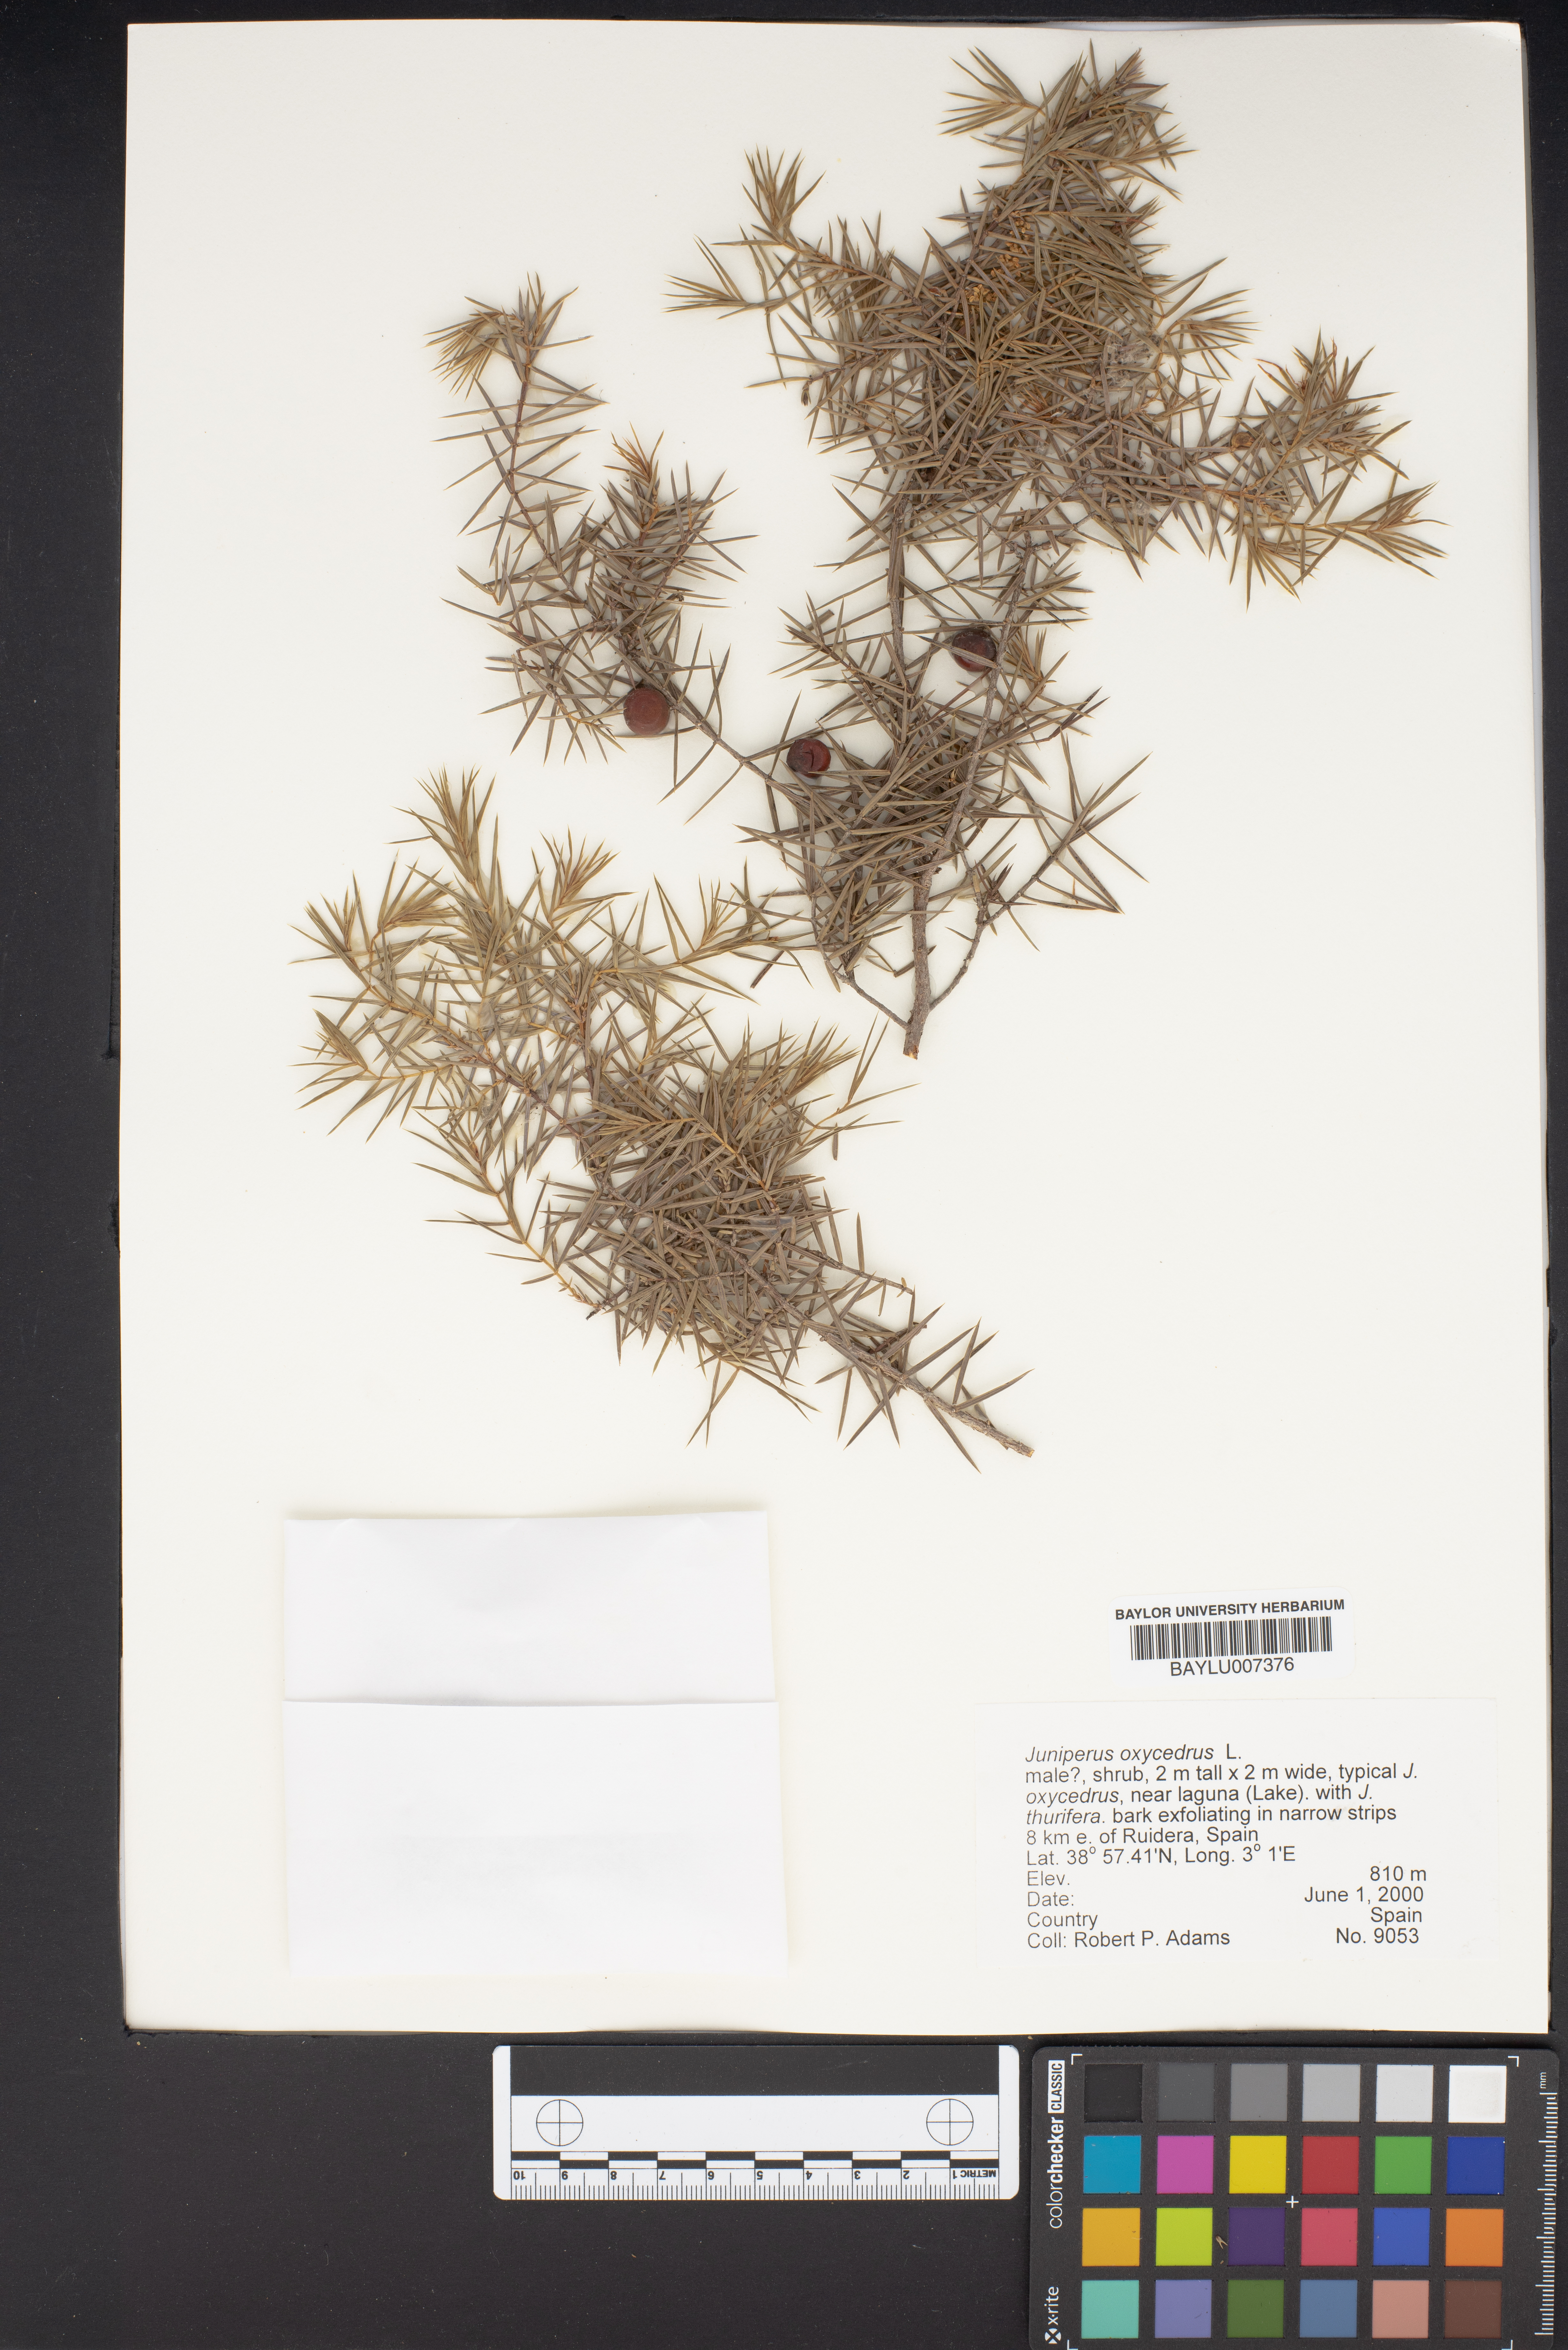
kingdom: Plantae
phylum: Tracheophyta
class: Pinopsida
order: Pinales
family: Cupressaceae
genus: Juniperus
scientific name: Juniperus oxycedrus
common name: Prickly juniper
